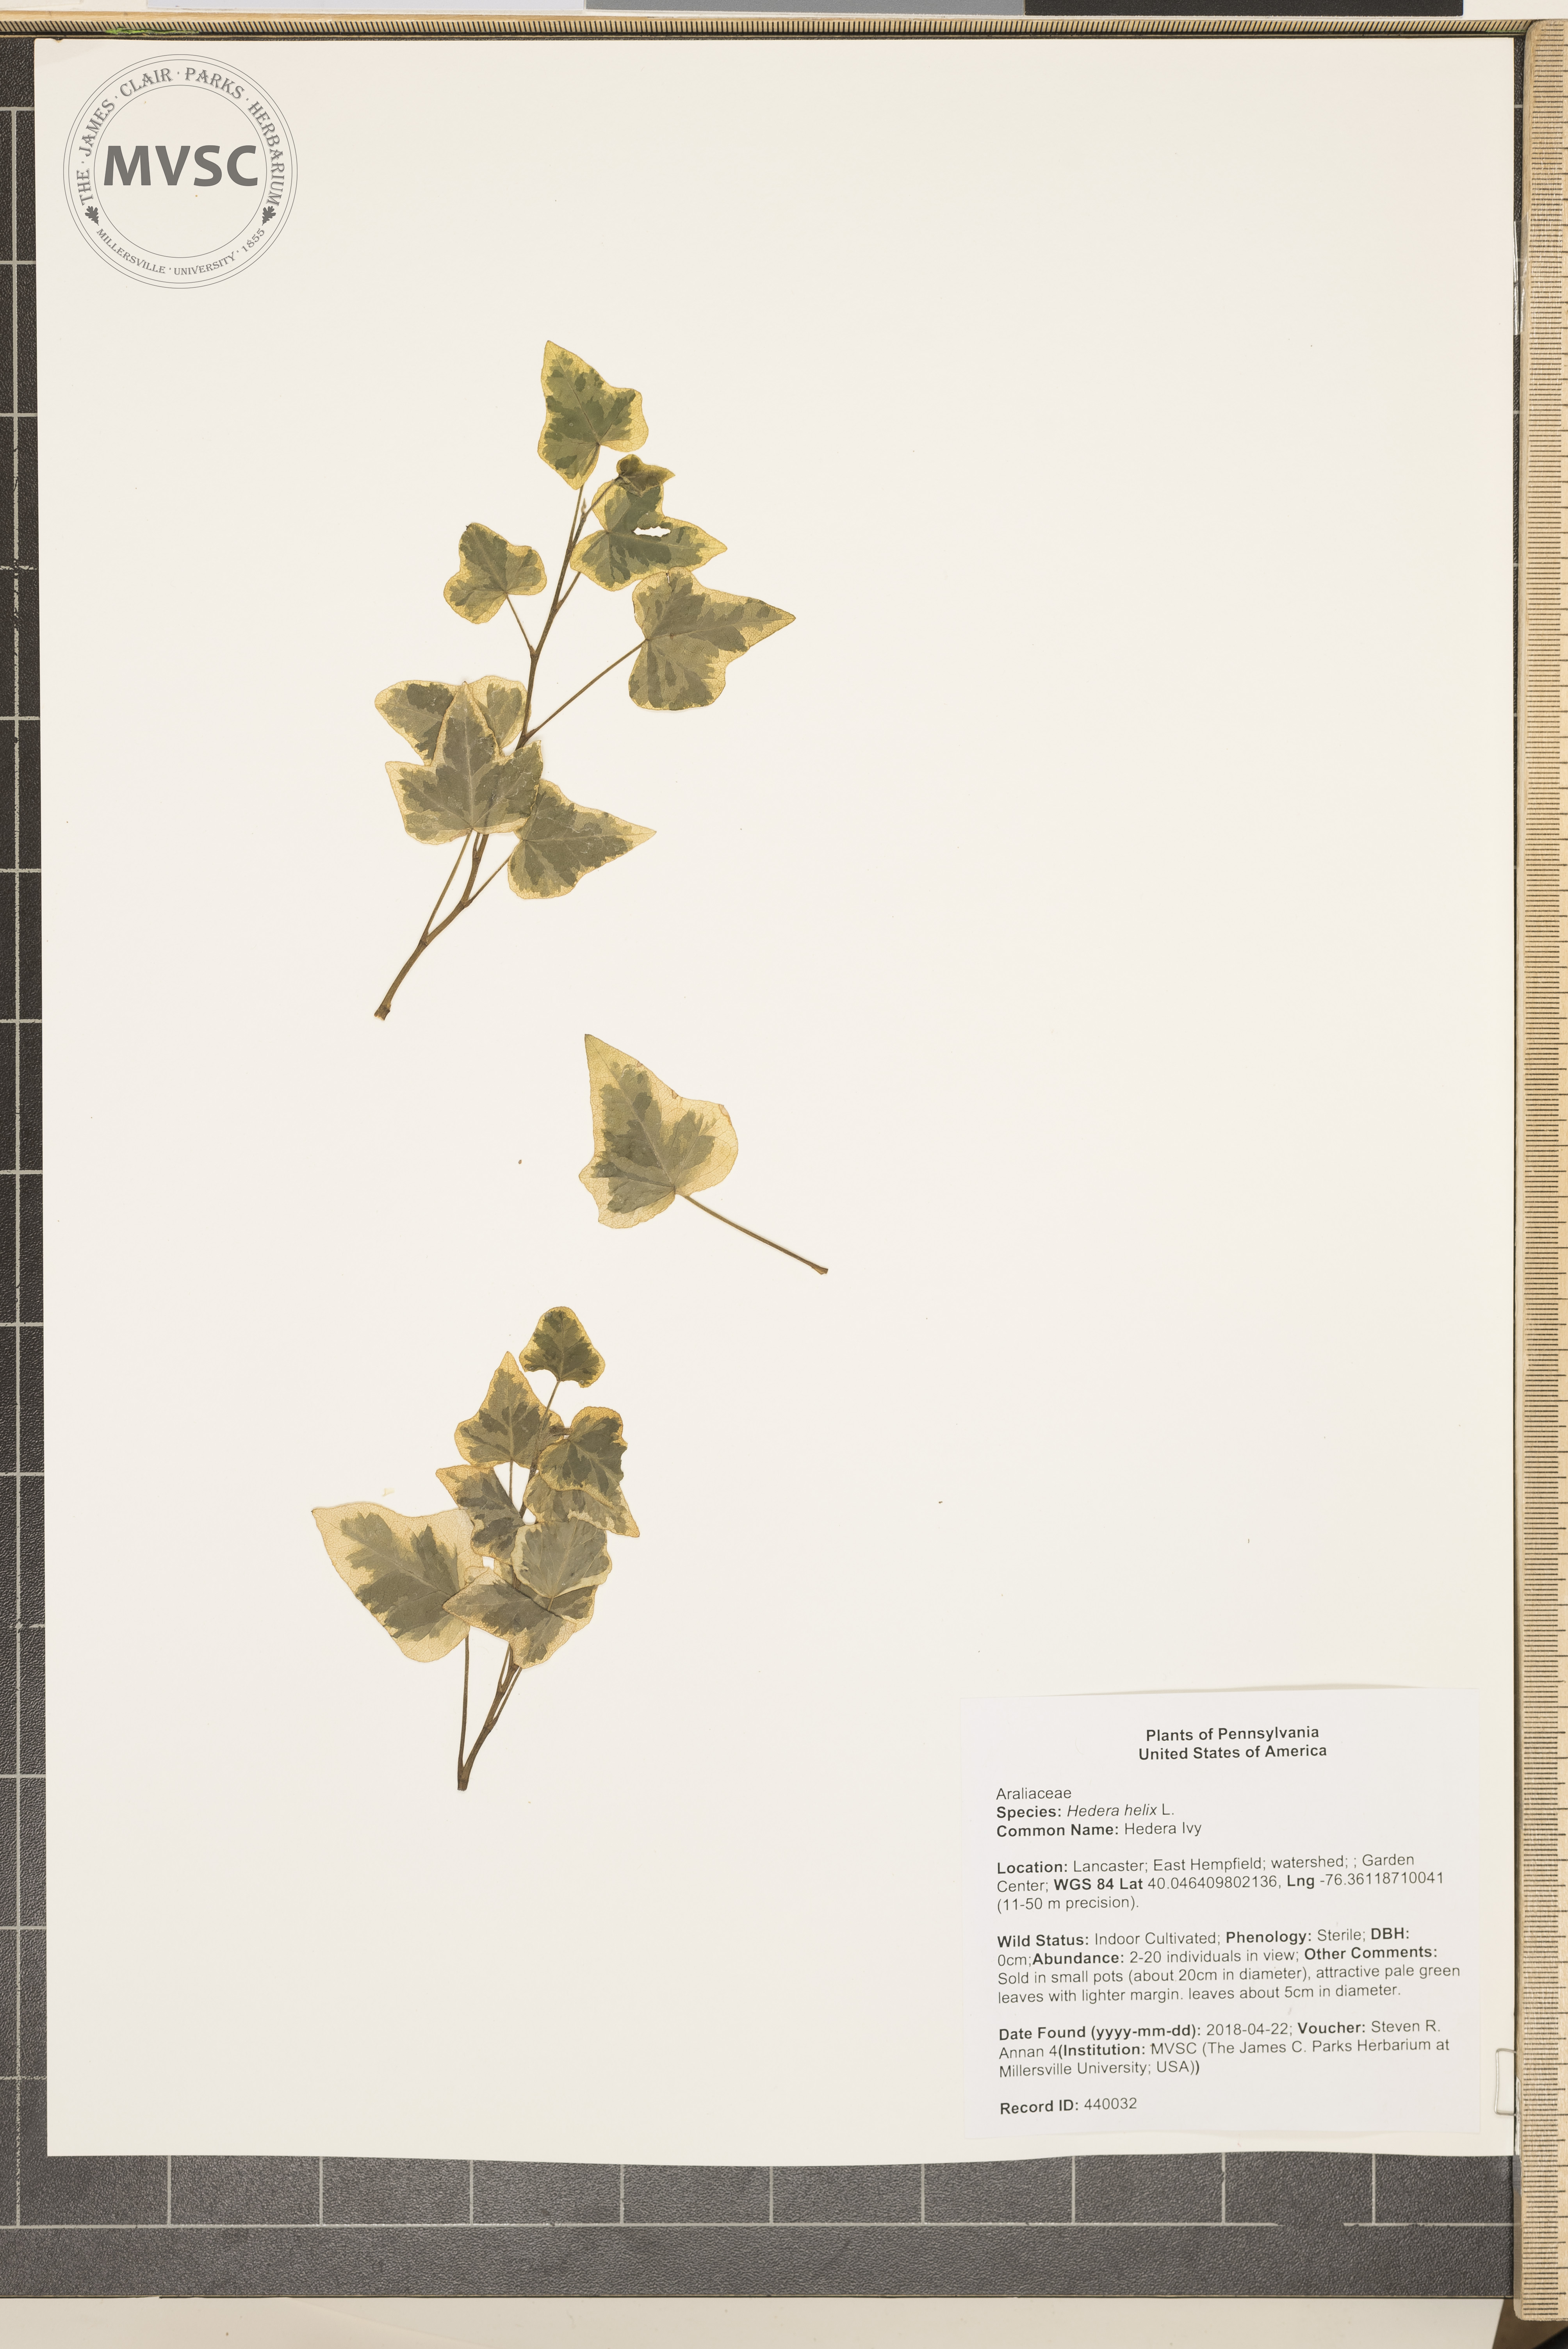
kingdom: Plantae
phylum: Tracheophyta
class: Magnoliopsida
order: Apiales
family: Araliaceae
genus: Hedera
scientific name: Hedera helix
